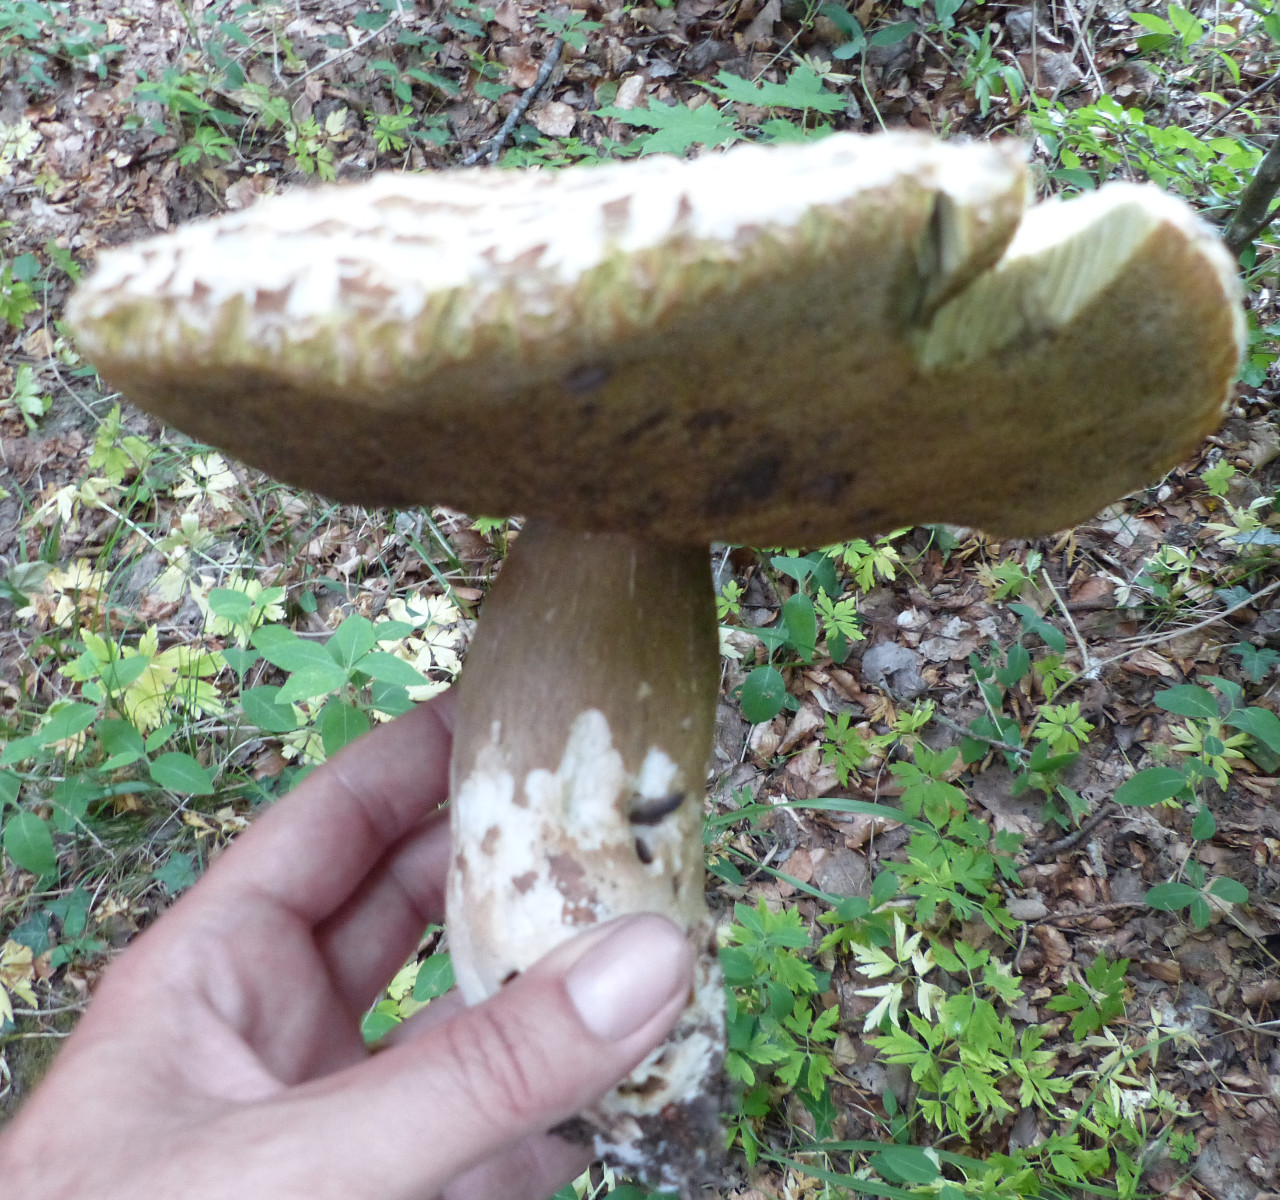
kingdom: Fungi
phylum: Basidiomycota
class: Agaricomycetes
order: Boletales
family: Boletaceae
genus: Boletus
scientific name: Boletus reticulatus
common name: sommer-rørhat
